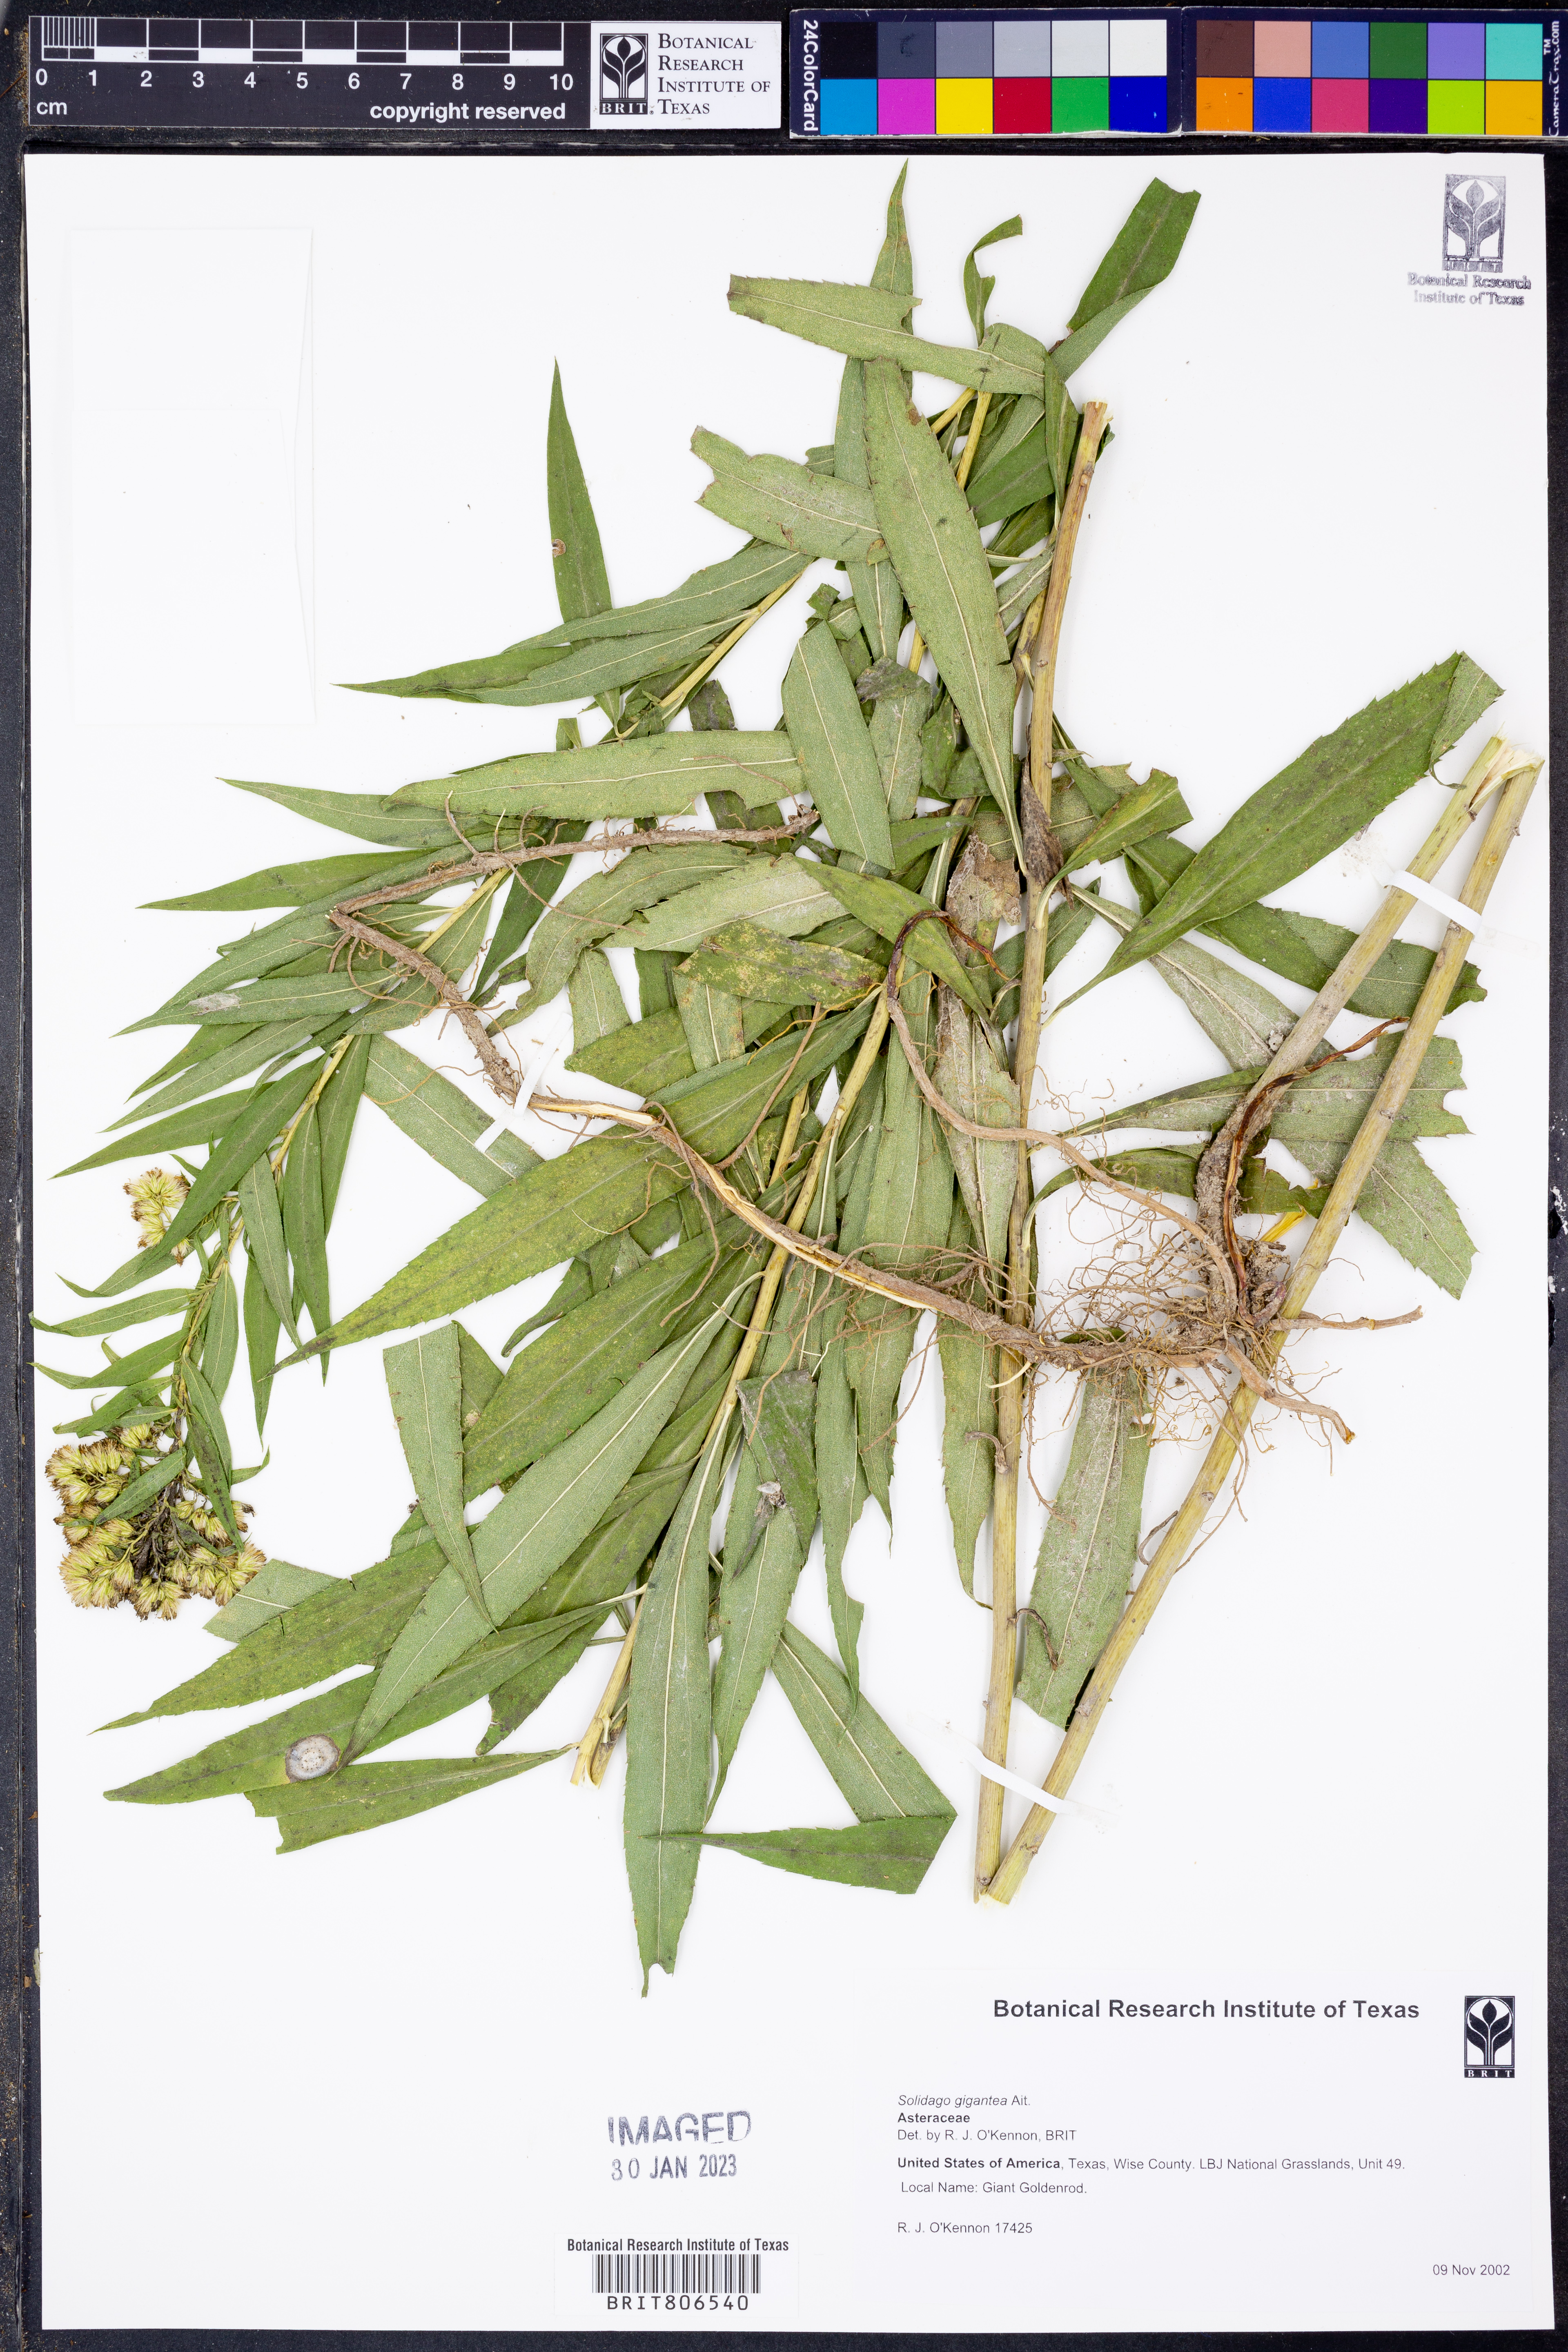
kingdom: Plantae
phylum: Tracheophyta
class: Magnoliopsida
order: Asterales
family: Asteraceae
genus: Solidago
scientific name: Solidago gigantea
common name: Giant goldenrod
